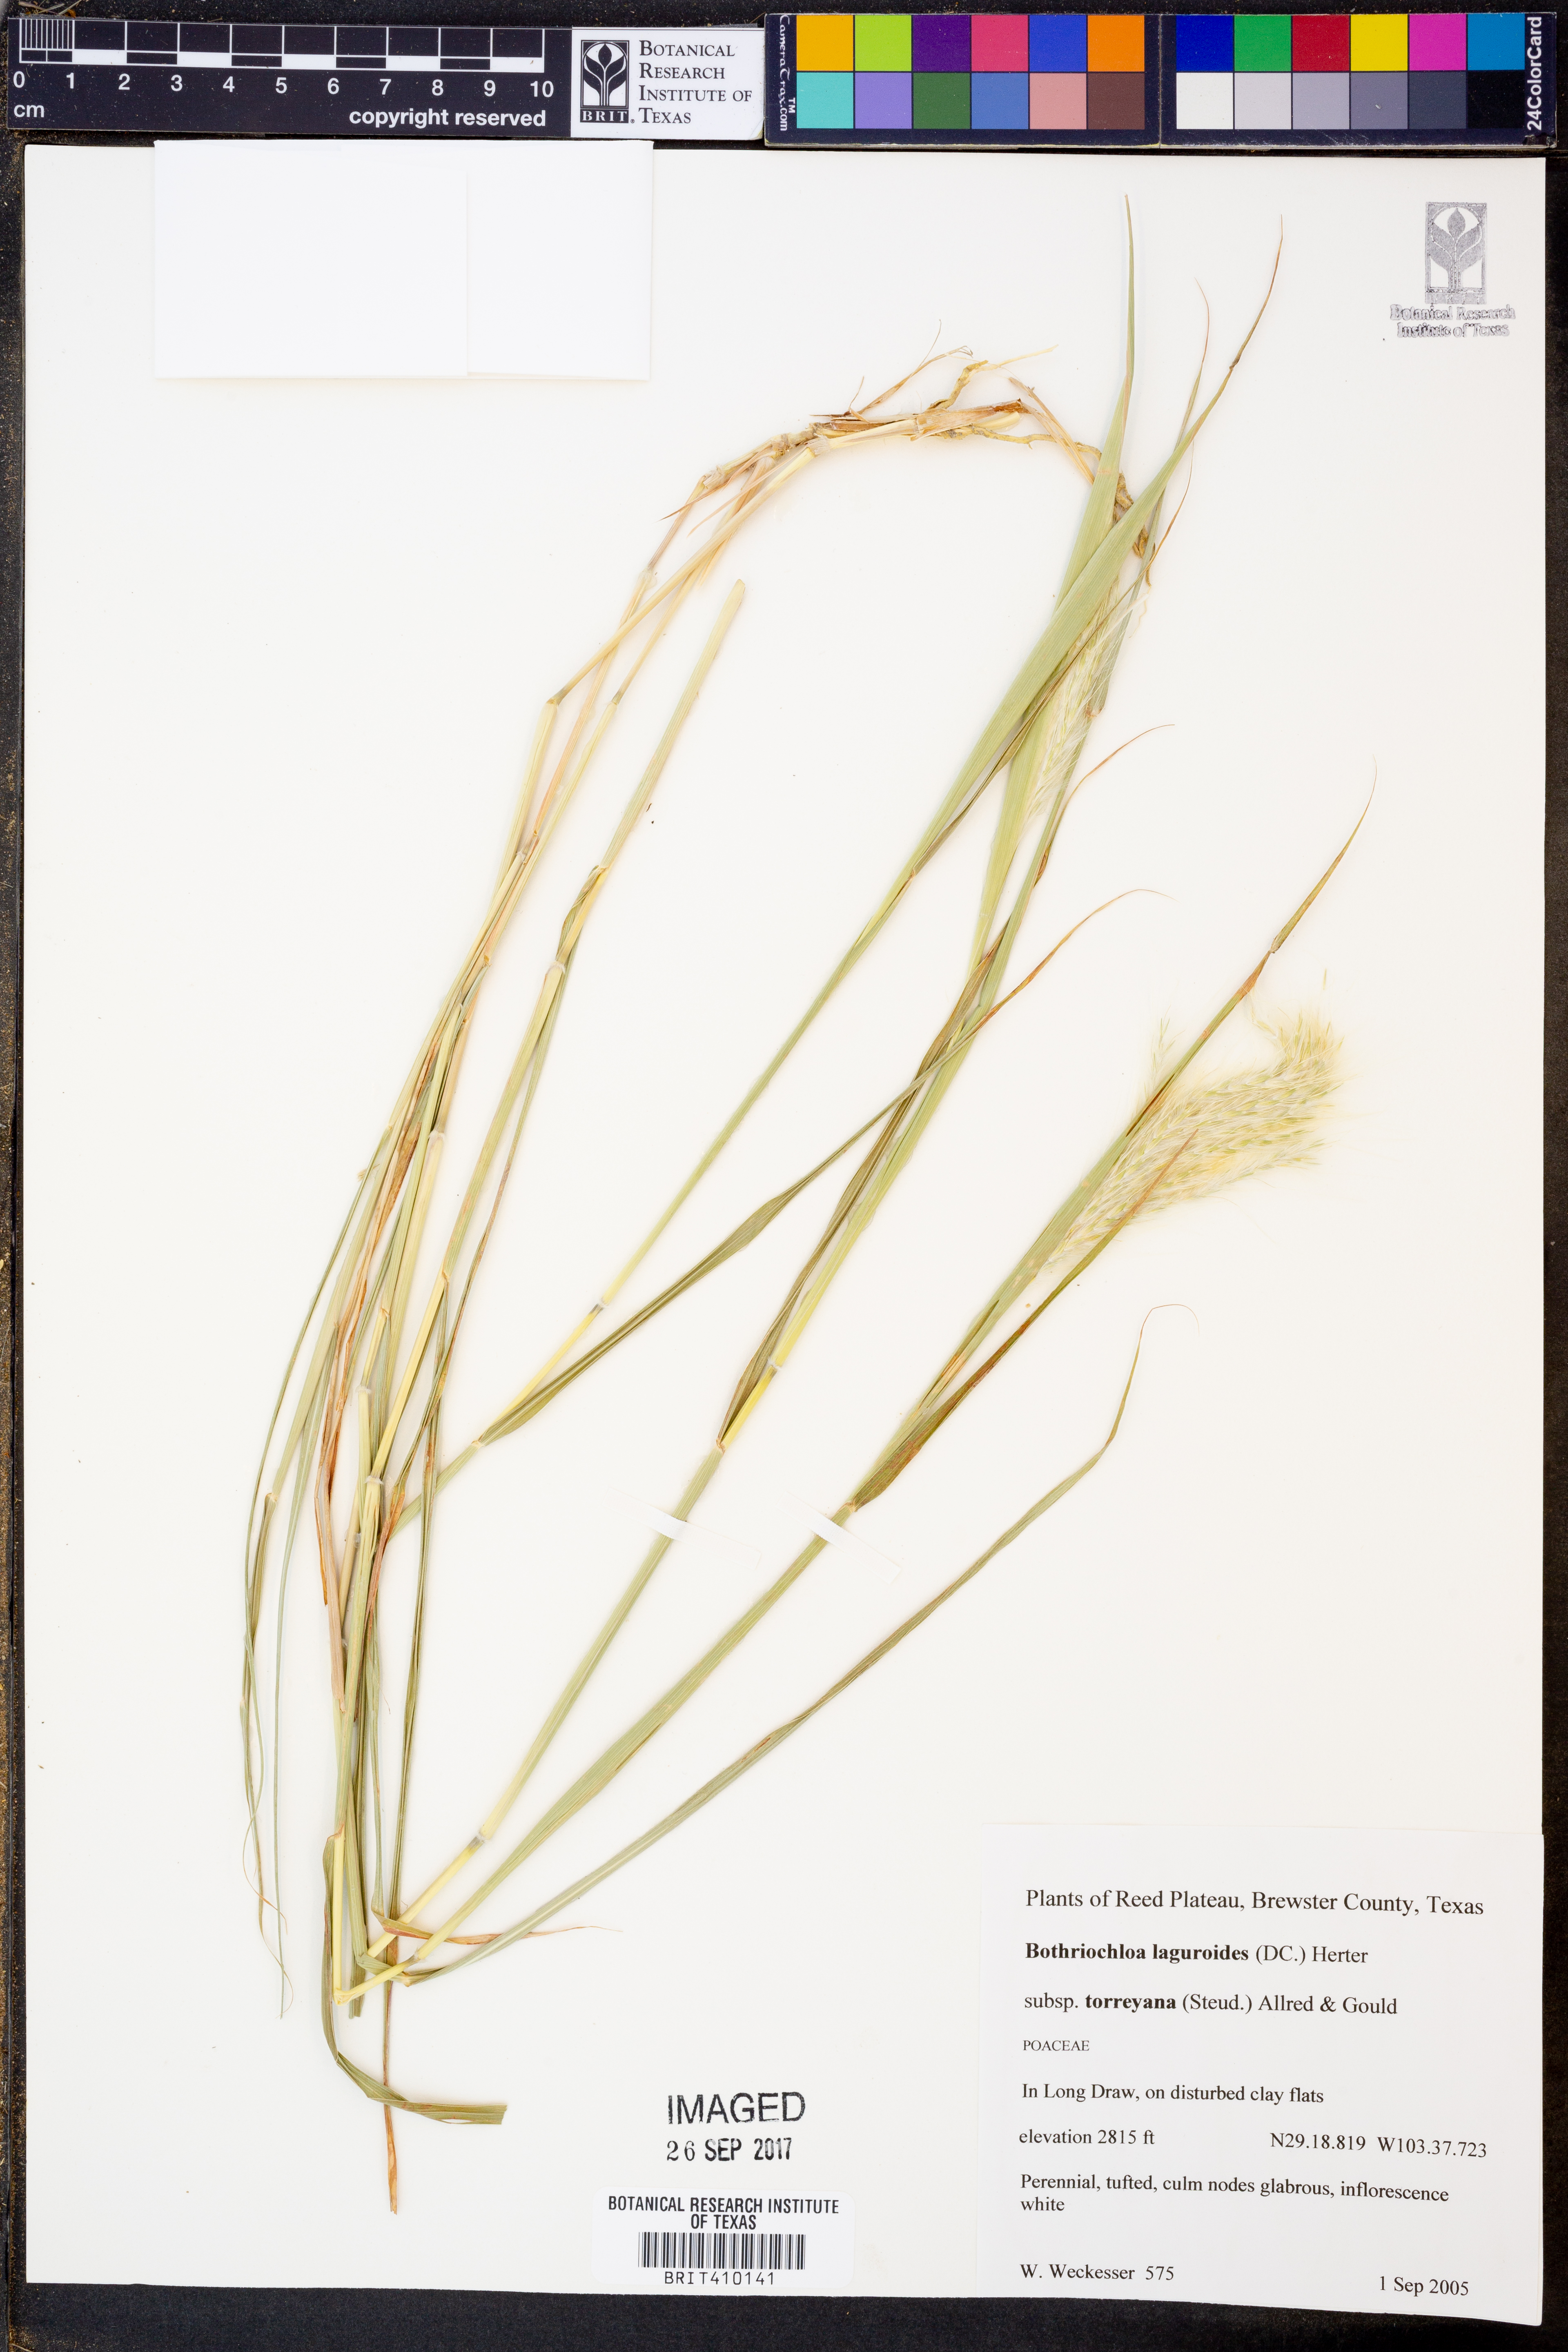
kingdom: Plantae
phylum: Tracheophyta
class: Liliopsida
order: Poales
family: Poaceae
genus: Bothriochloa
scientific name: Bothriochloa torreyana
